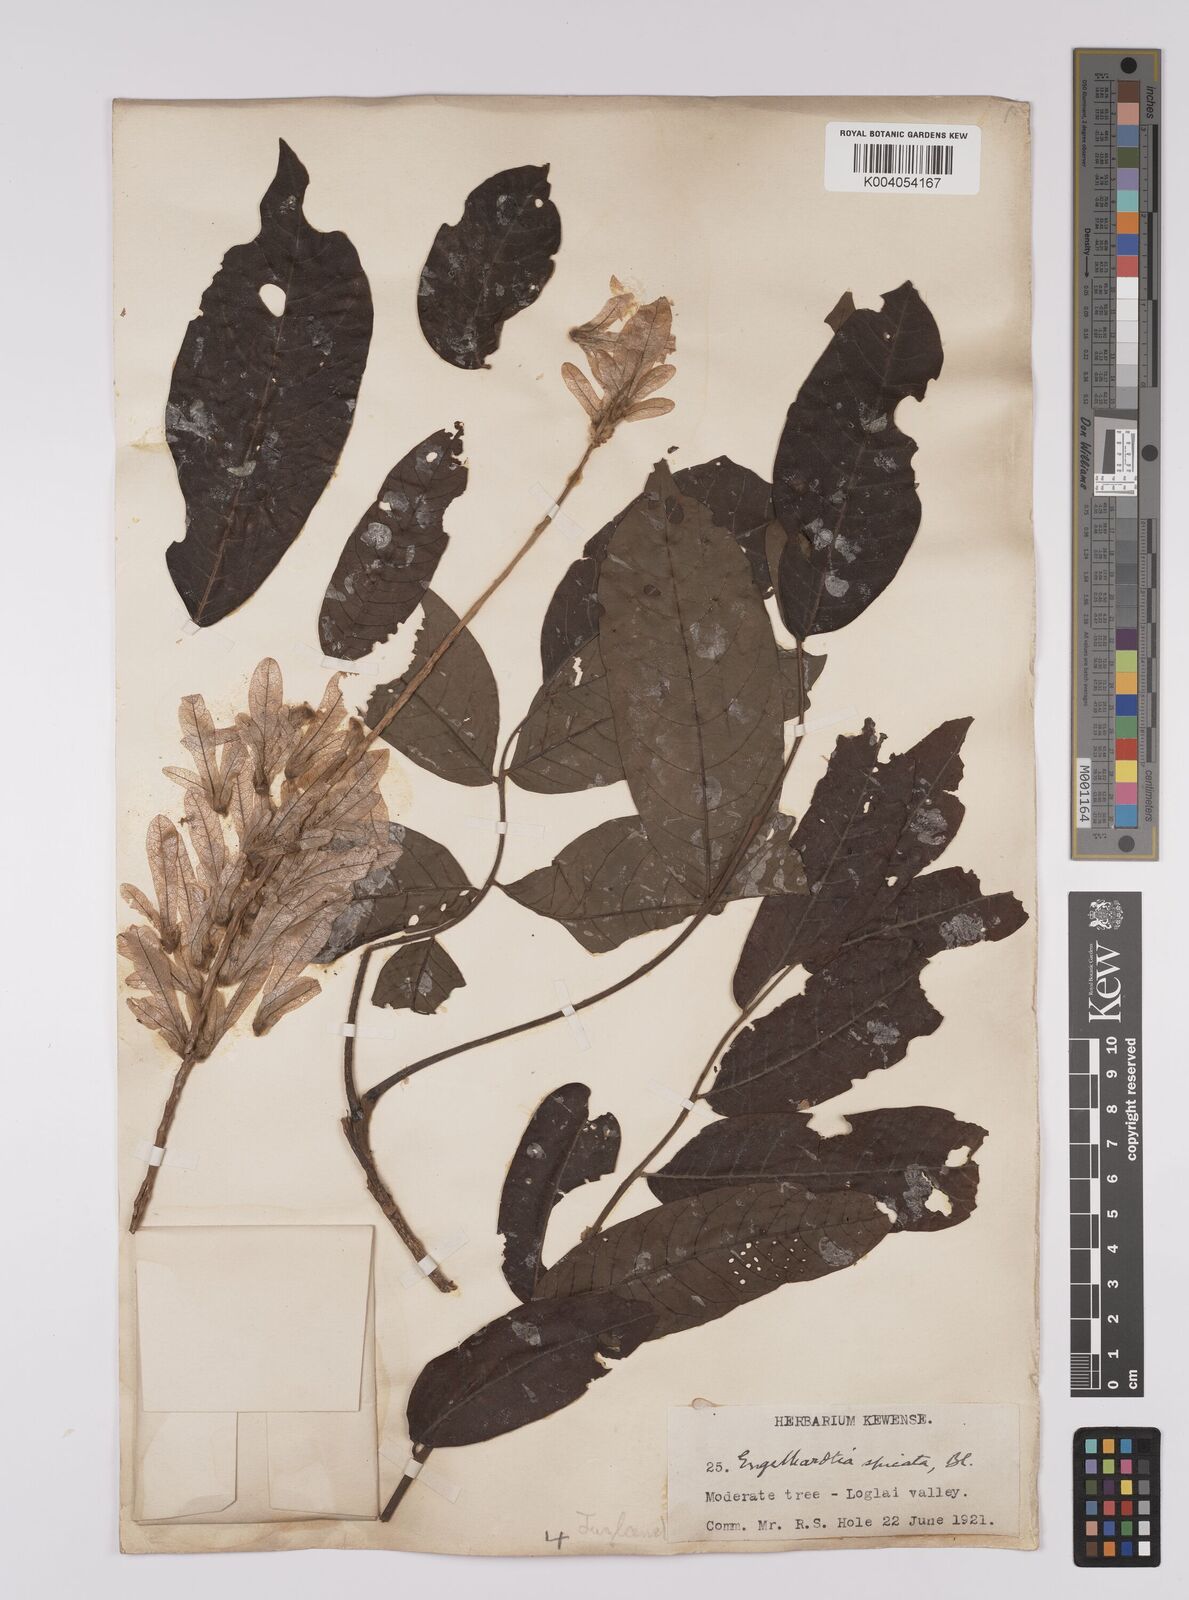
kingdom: Plantae
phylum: Tracheophyta
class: Magnoliopsida
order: Fagales
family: Juglandaceae
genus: Engelhardia
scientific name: Engelhardia spicata
